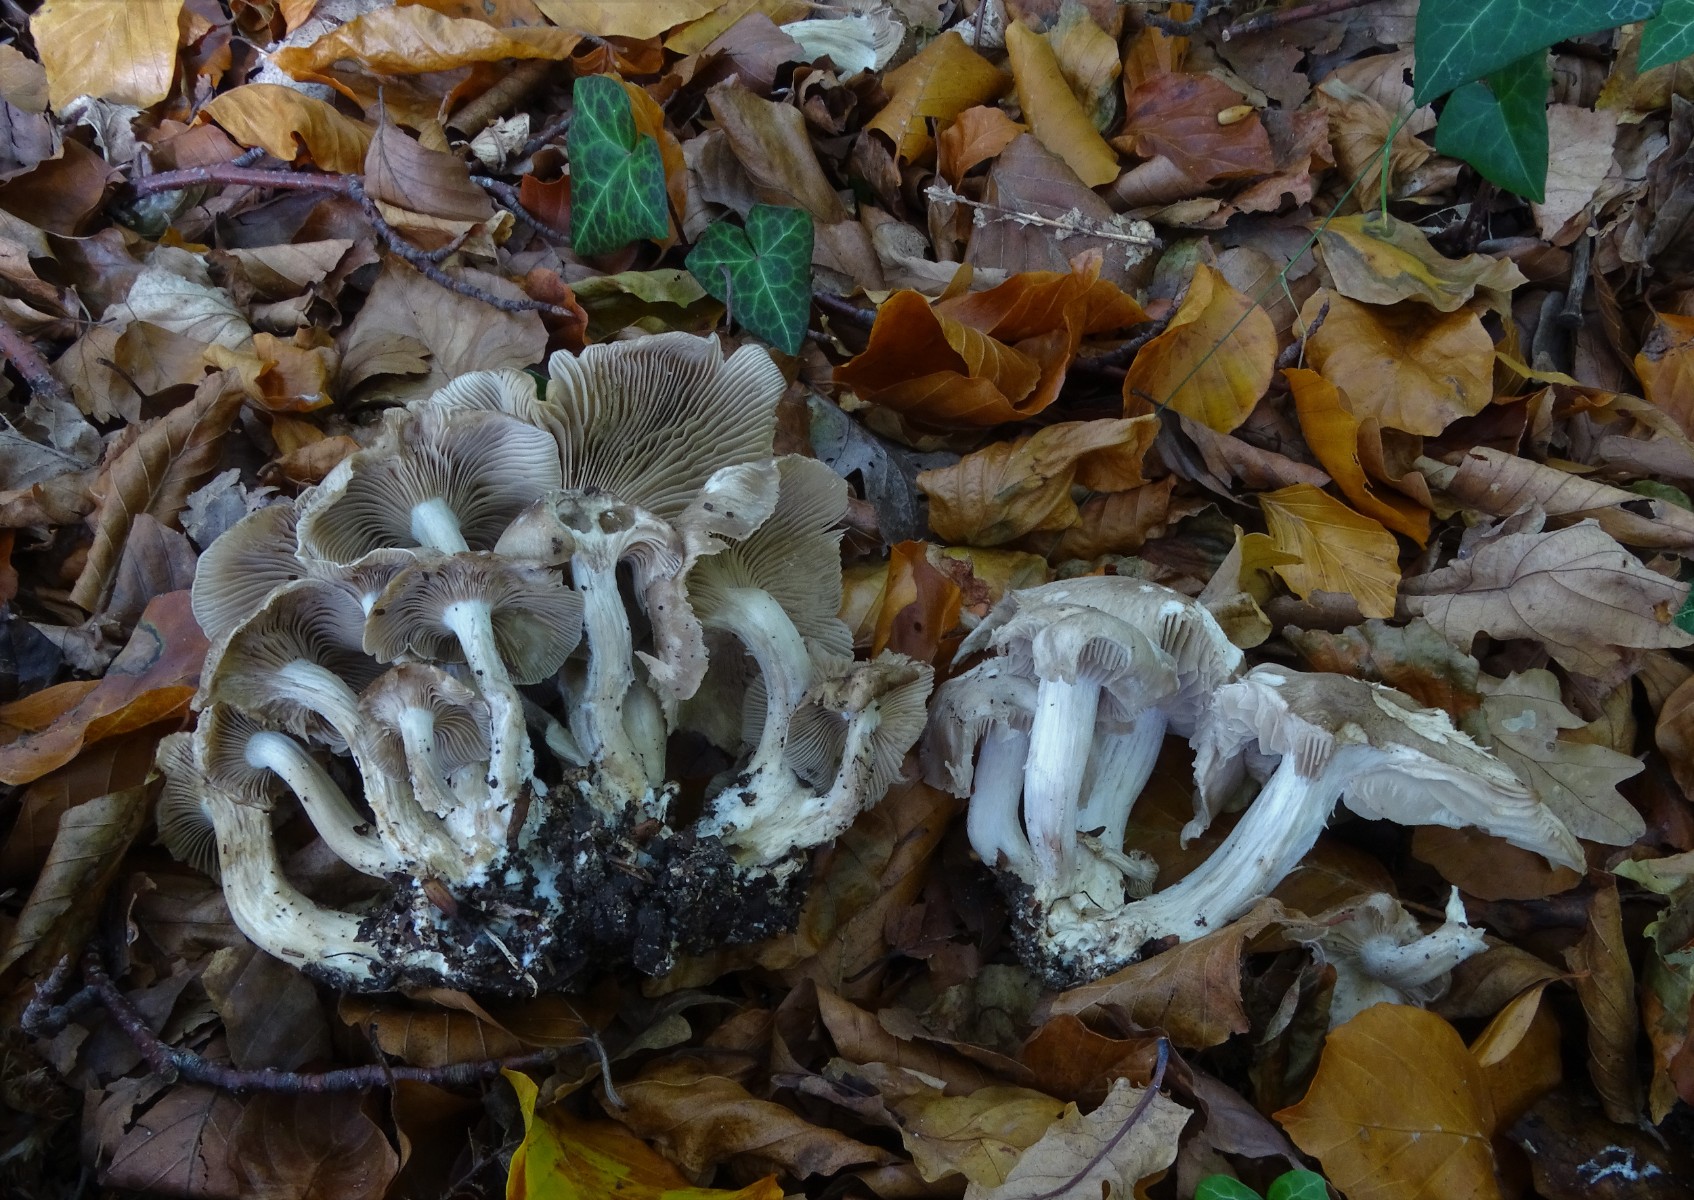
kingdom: Fungi
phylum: Basidiomycota
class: Agaricomycetes
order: Agaricales
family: Lyophyllaceae
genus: Lyophyllum
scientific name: Lyophyllum decastes
